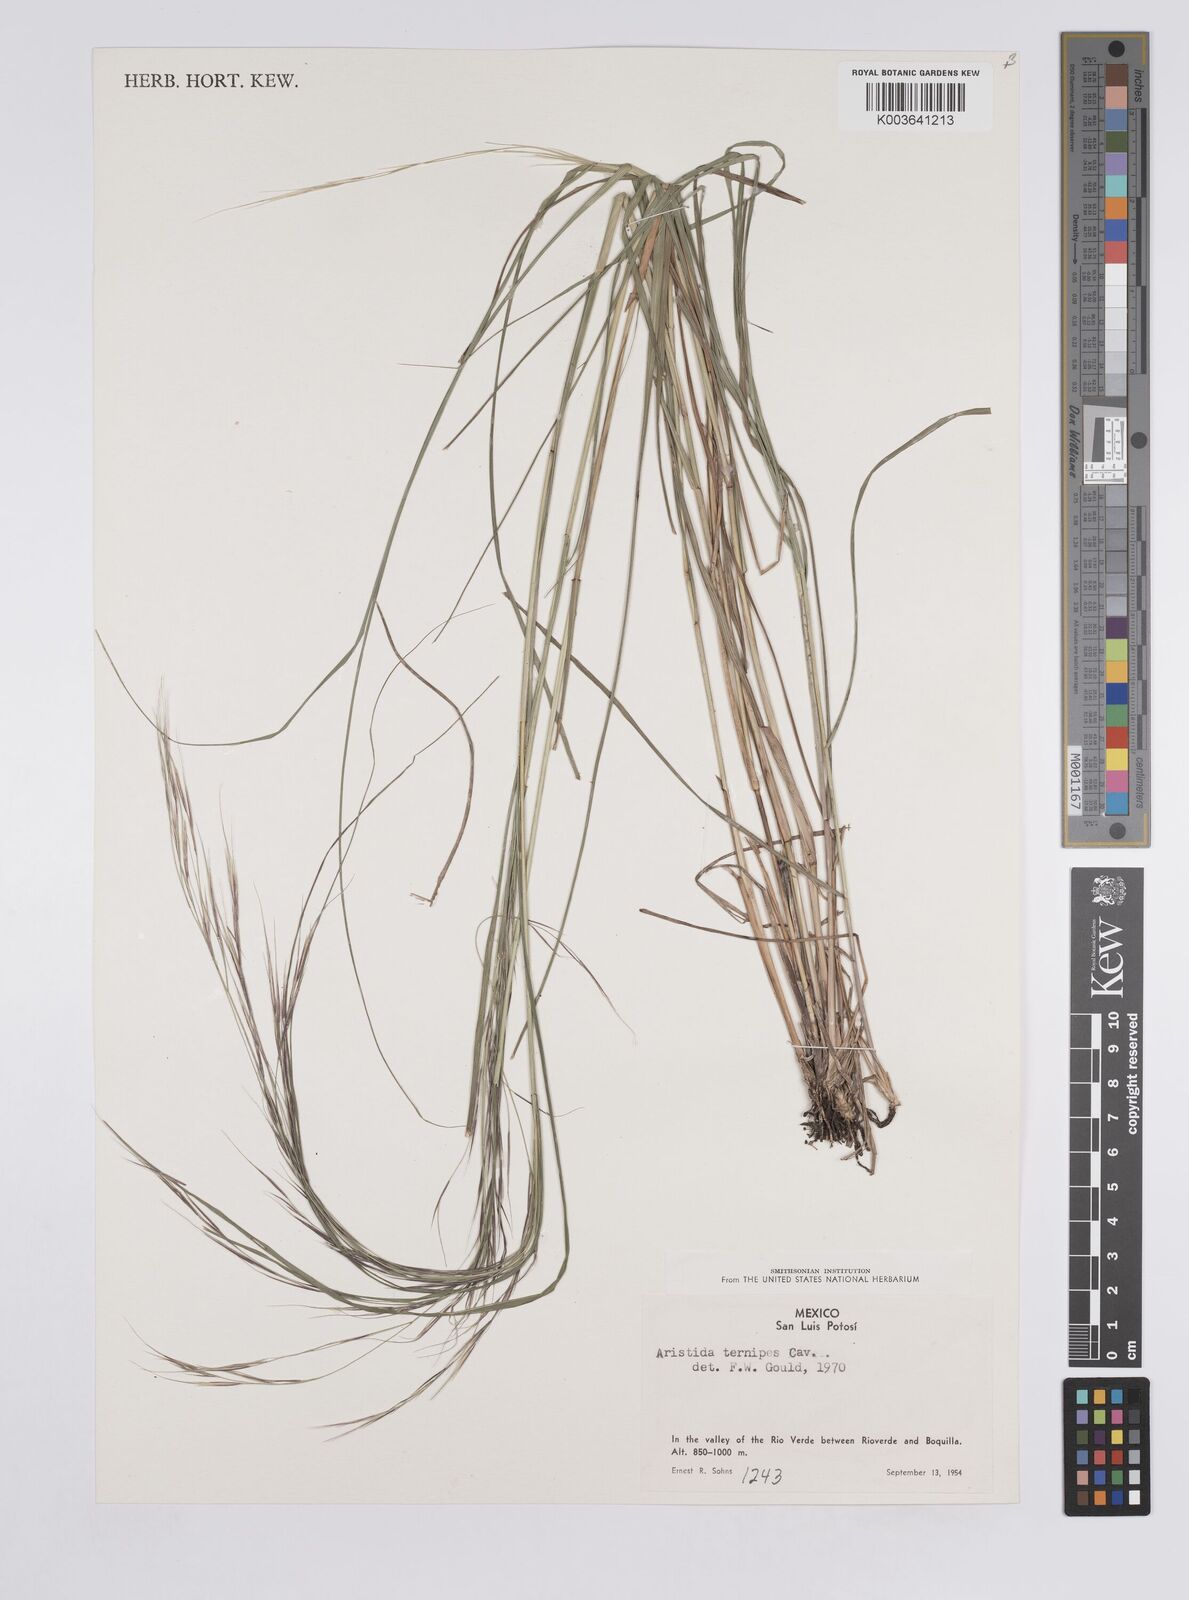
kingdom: Plantae
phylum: Tracheophyta
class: Liliopsida
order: Poales
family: Poaceae
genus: Aristida
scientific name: Aristida
